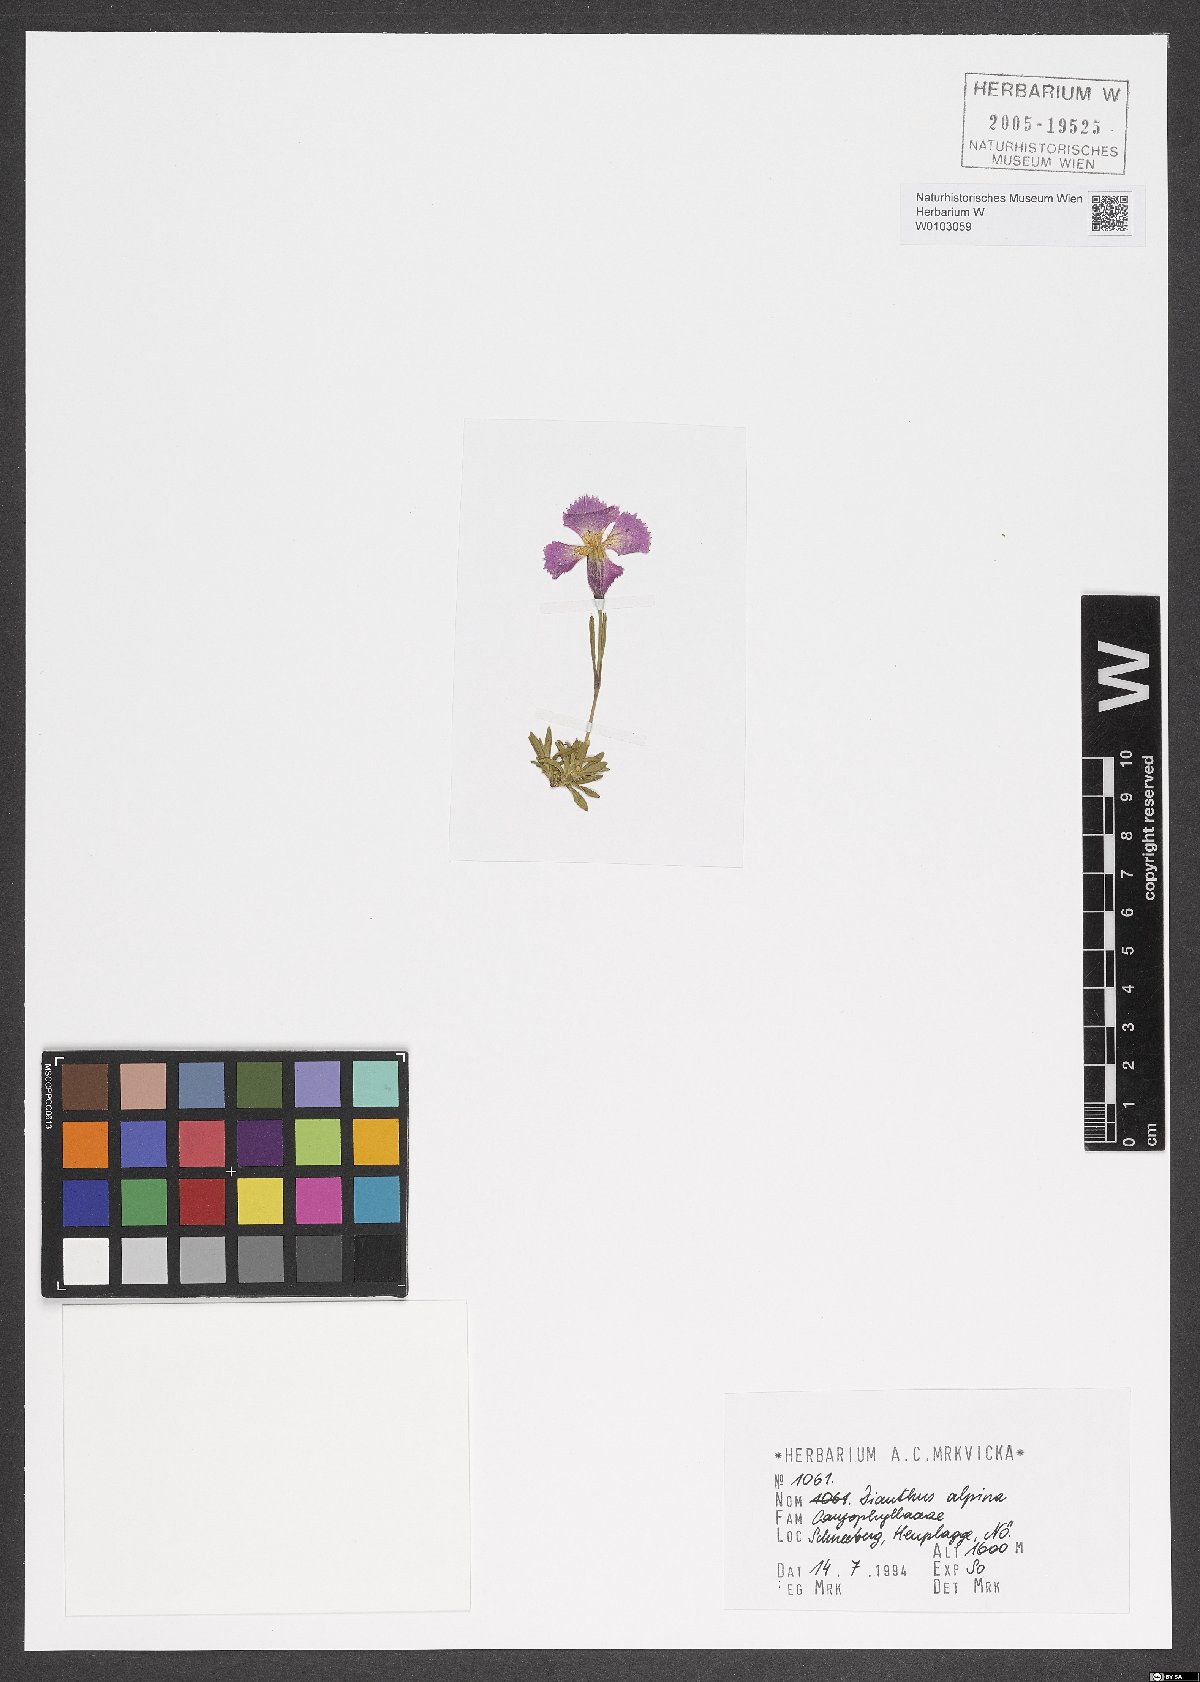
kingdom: Plantae
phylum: Tracheophyta
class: Magnoliopsida
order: Caryophyllales
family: Caryophyllaceae
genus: Dianthus
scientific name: Dianthus alpinus
